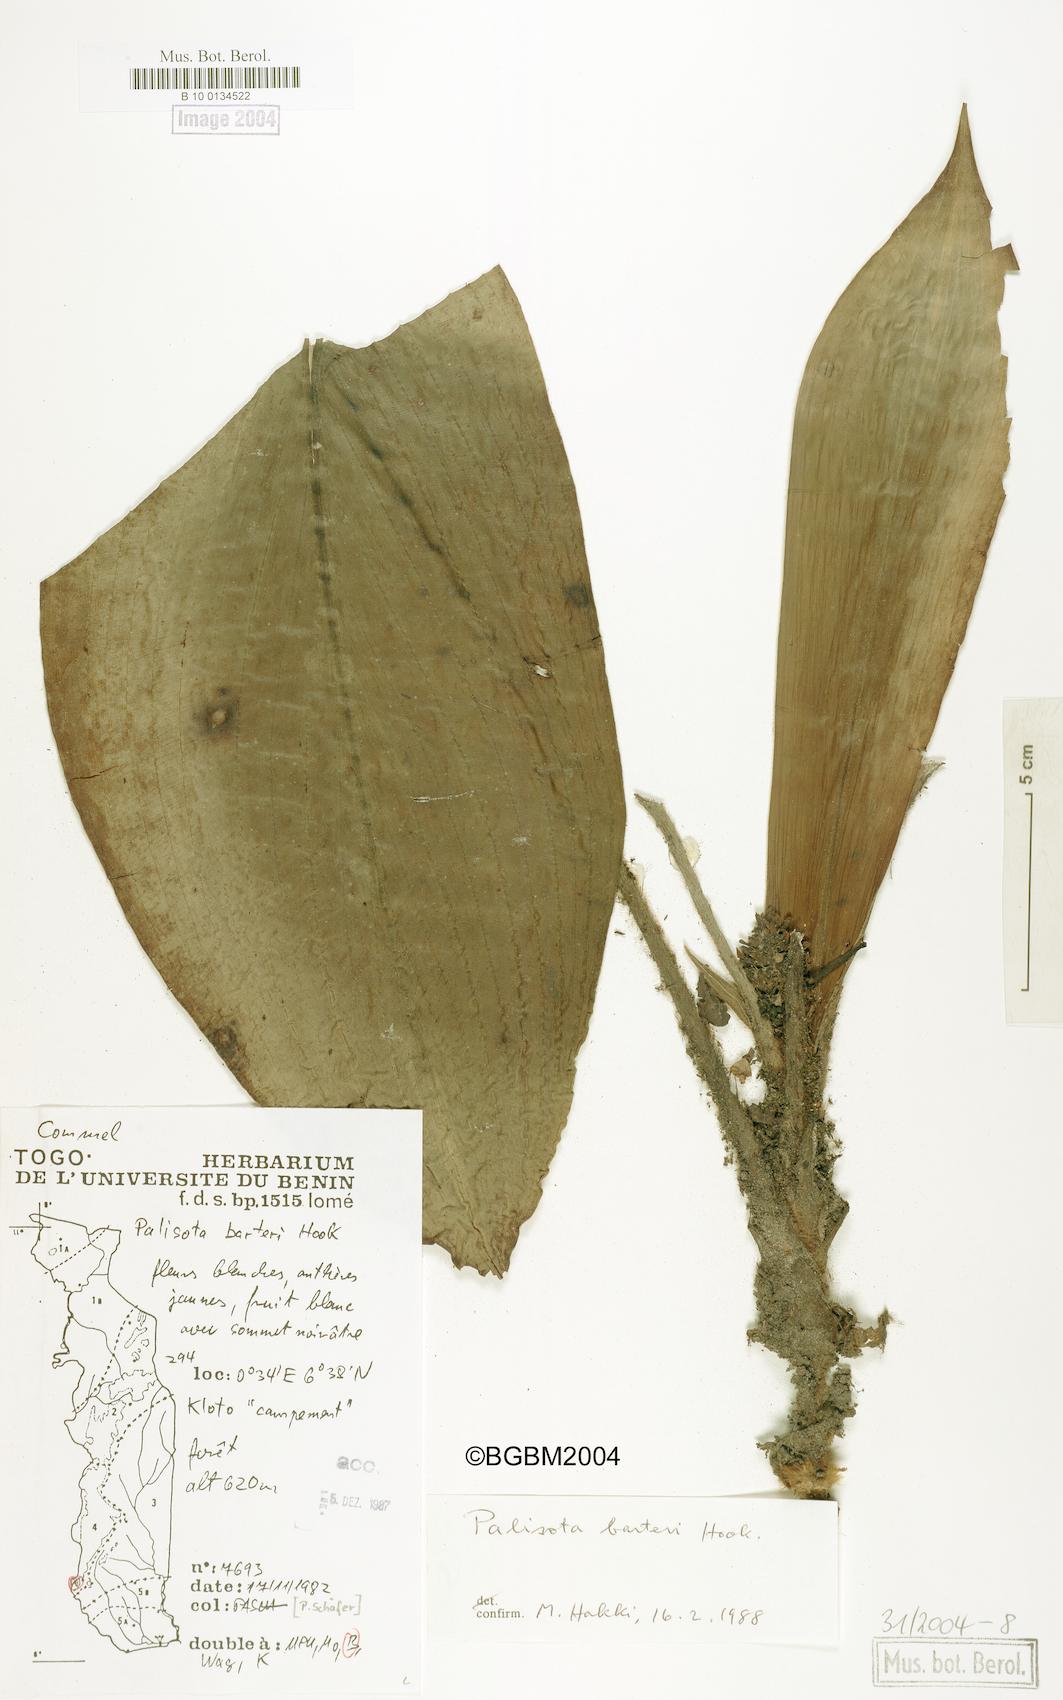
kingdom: Plantae
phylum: Tracheophyta
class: Liliopsida
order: Commelinales
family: Commelinaceae
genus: Palisota
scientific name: Palisota barteri
